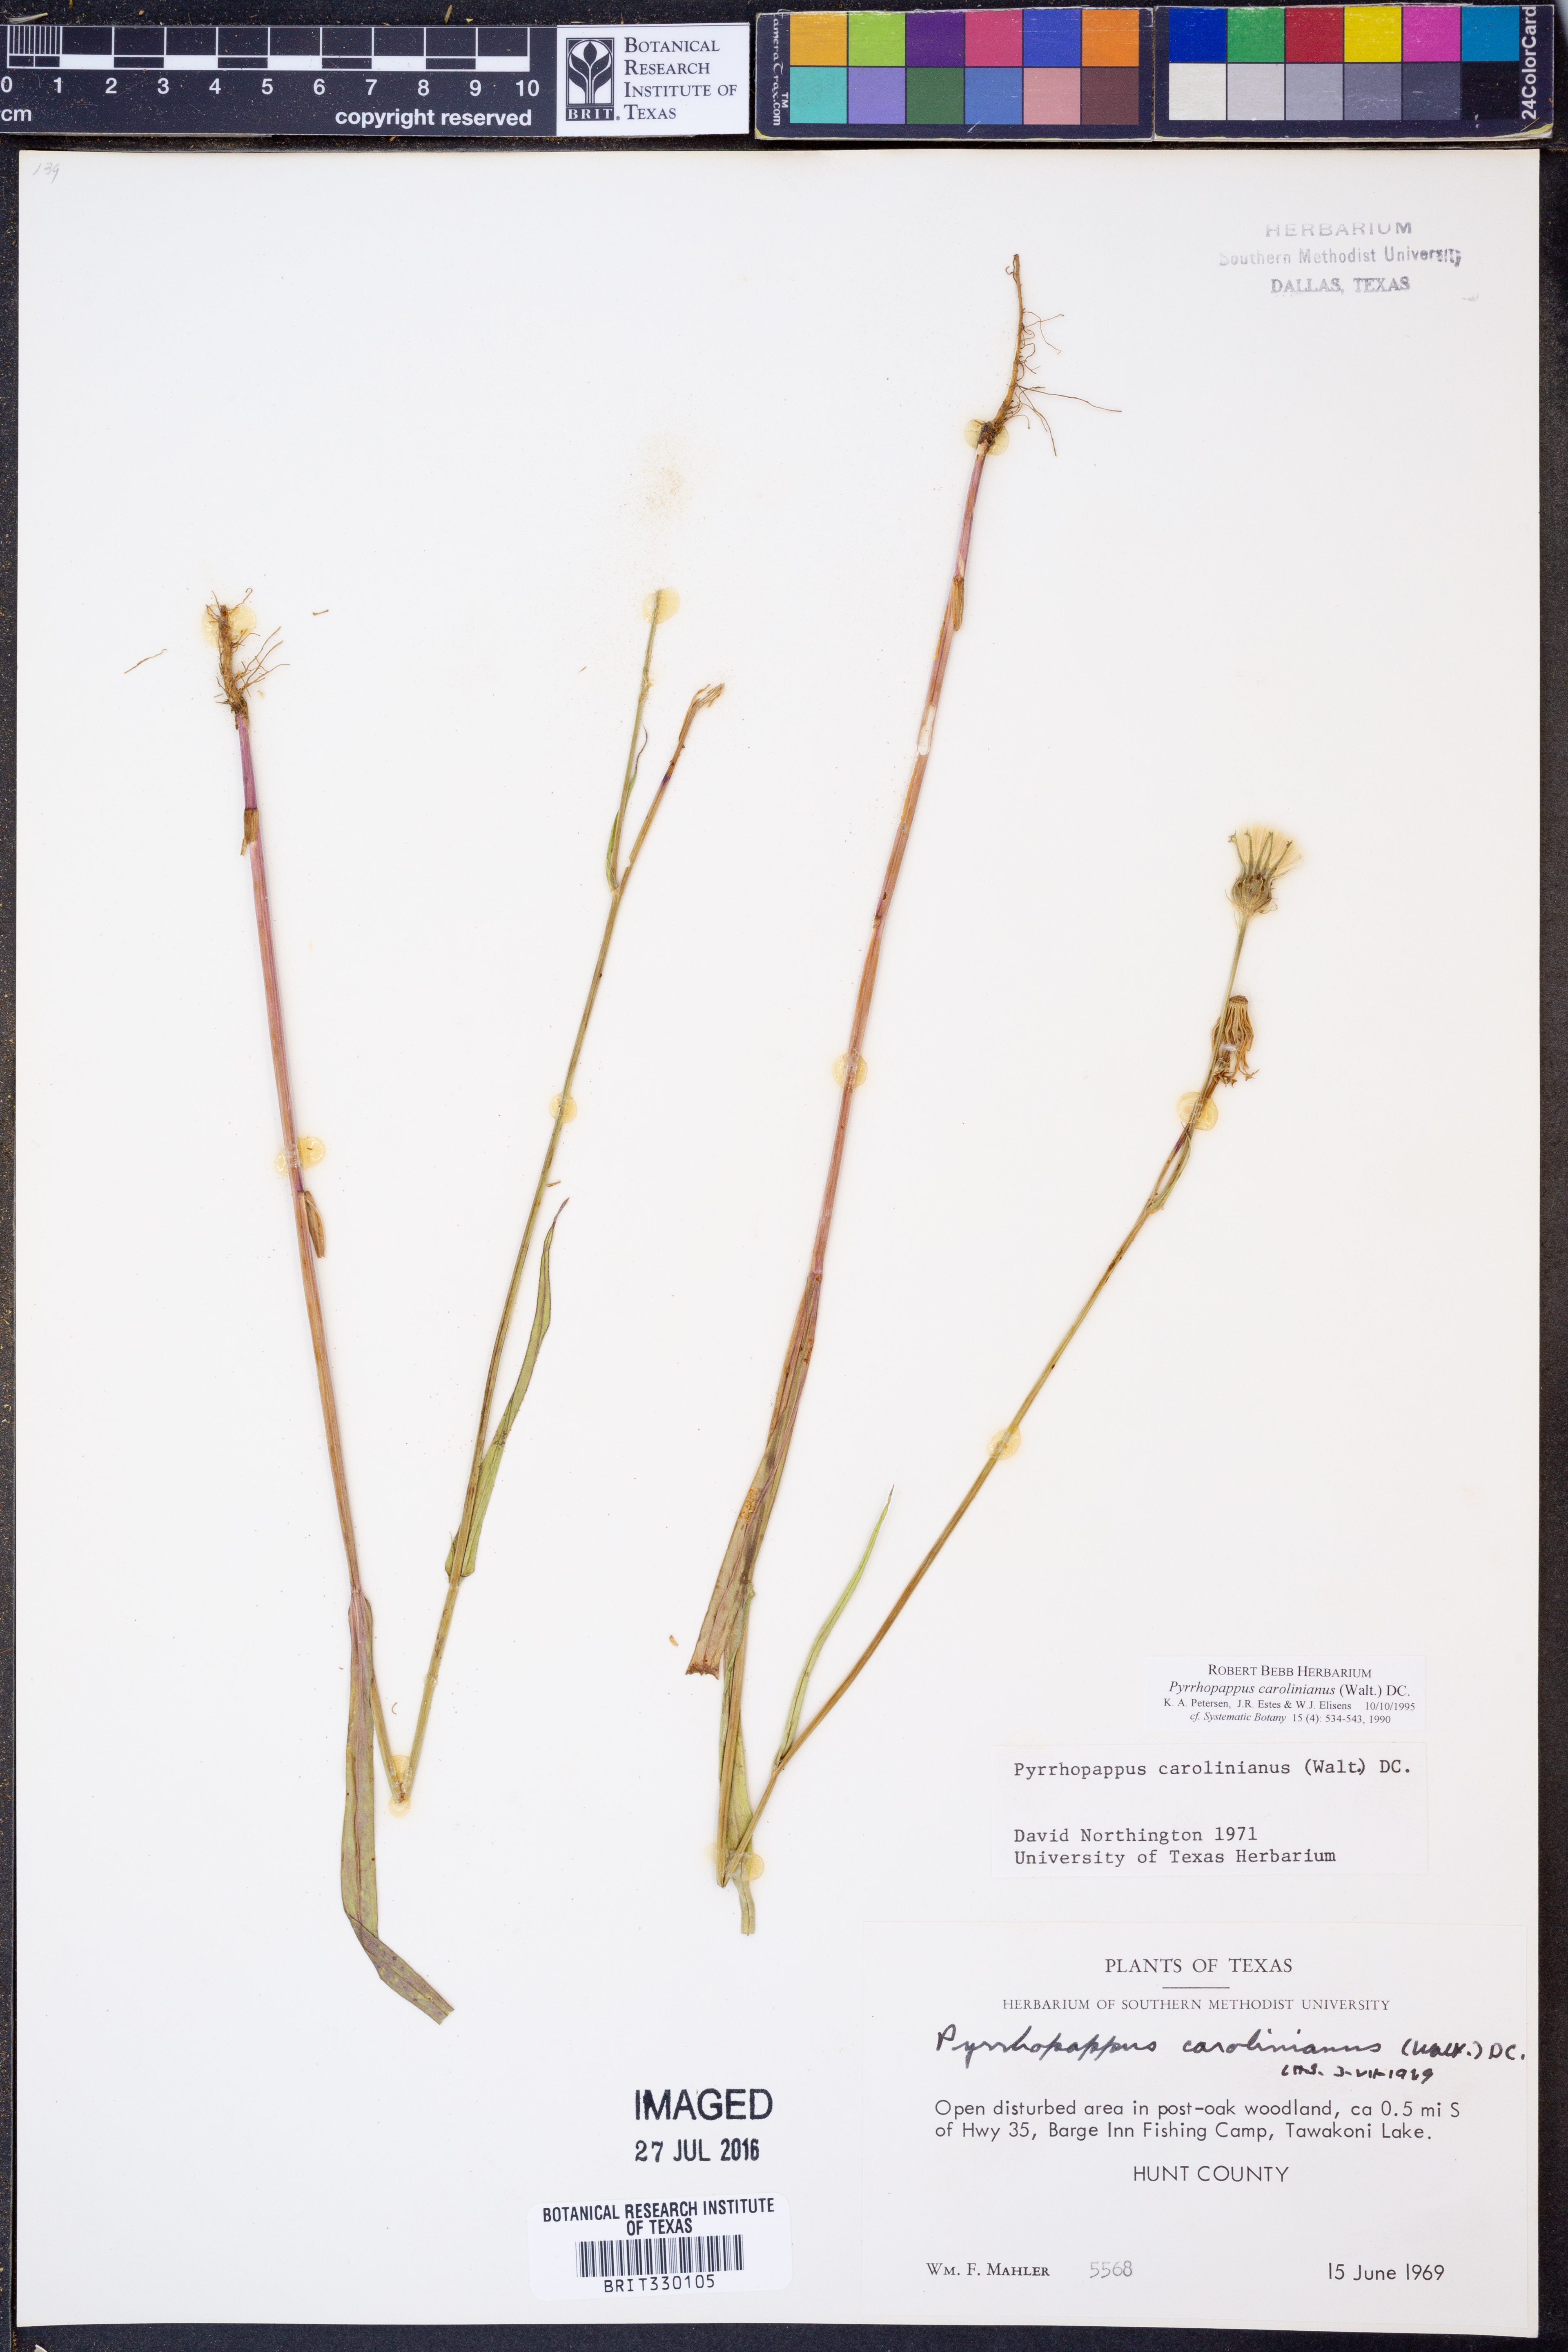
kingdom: Plantae
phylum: Tracheophyta
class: Magnoliopsida
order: Asterales
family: Asteraceae
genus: Pyrrhopappus
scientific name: Pyrrhopappus carolinianus
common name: Carolina desert-chicory
